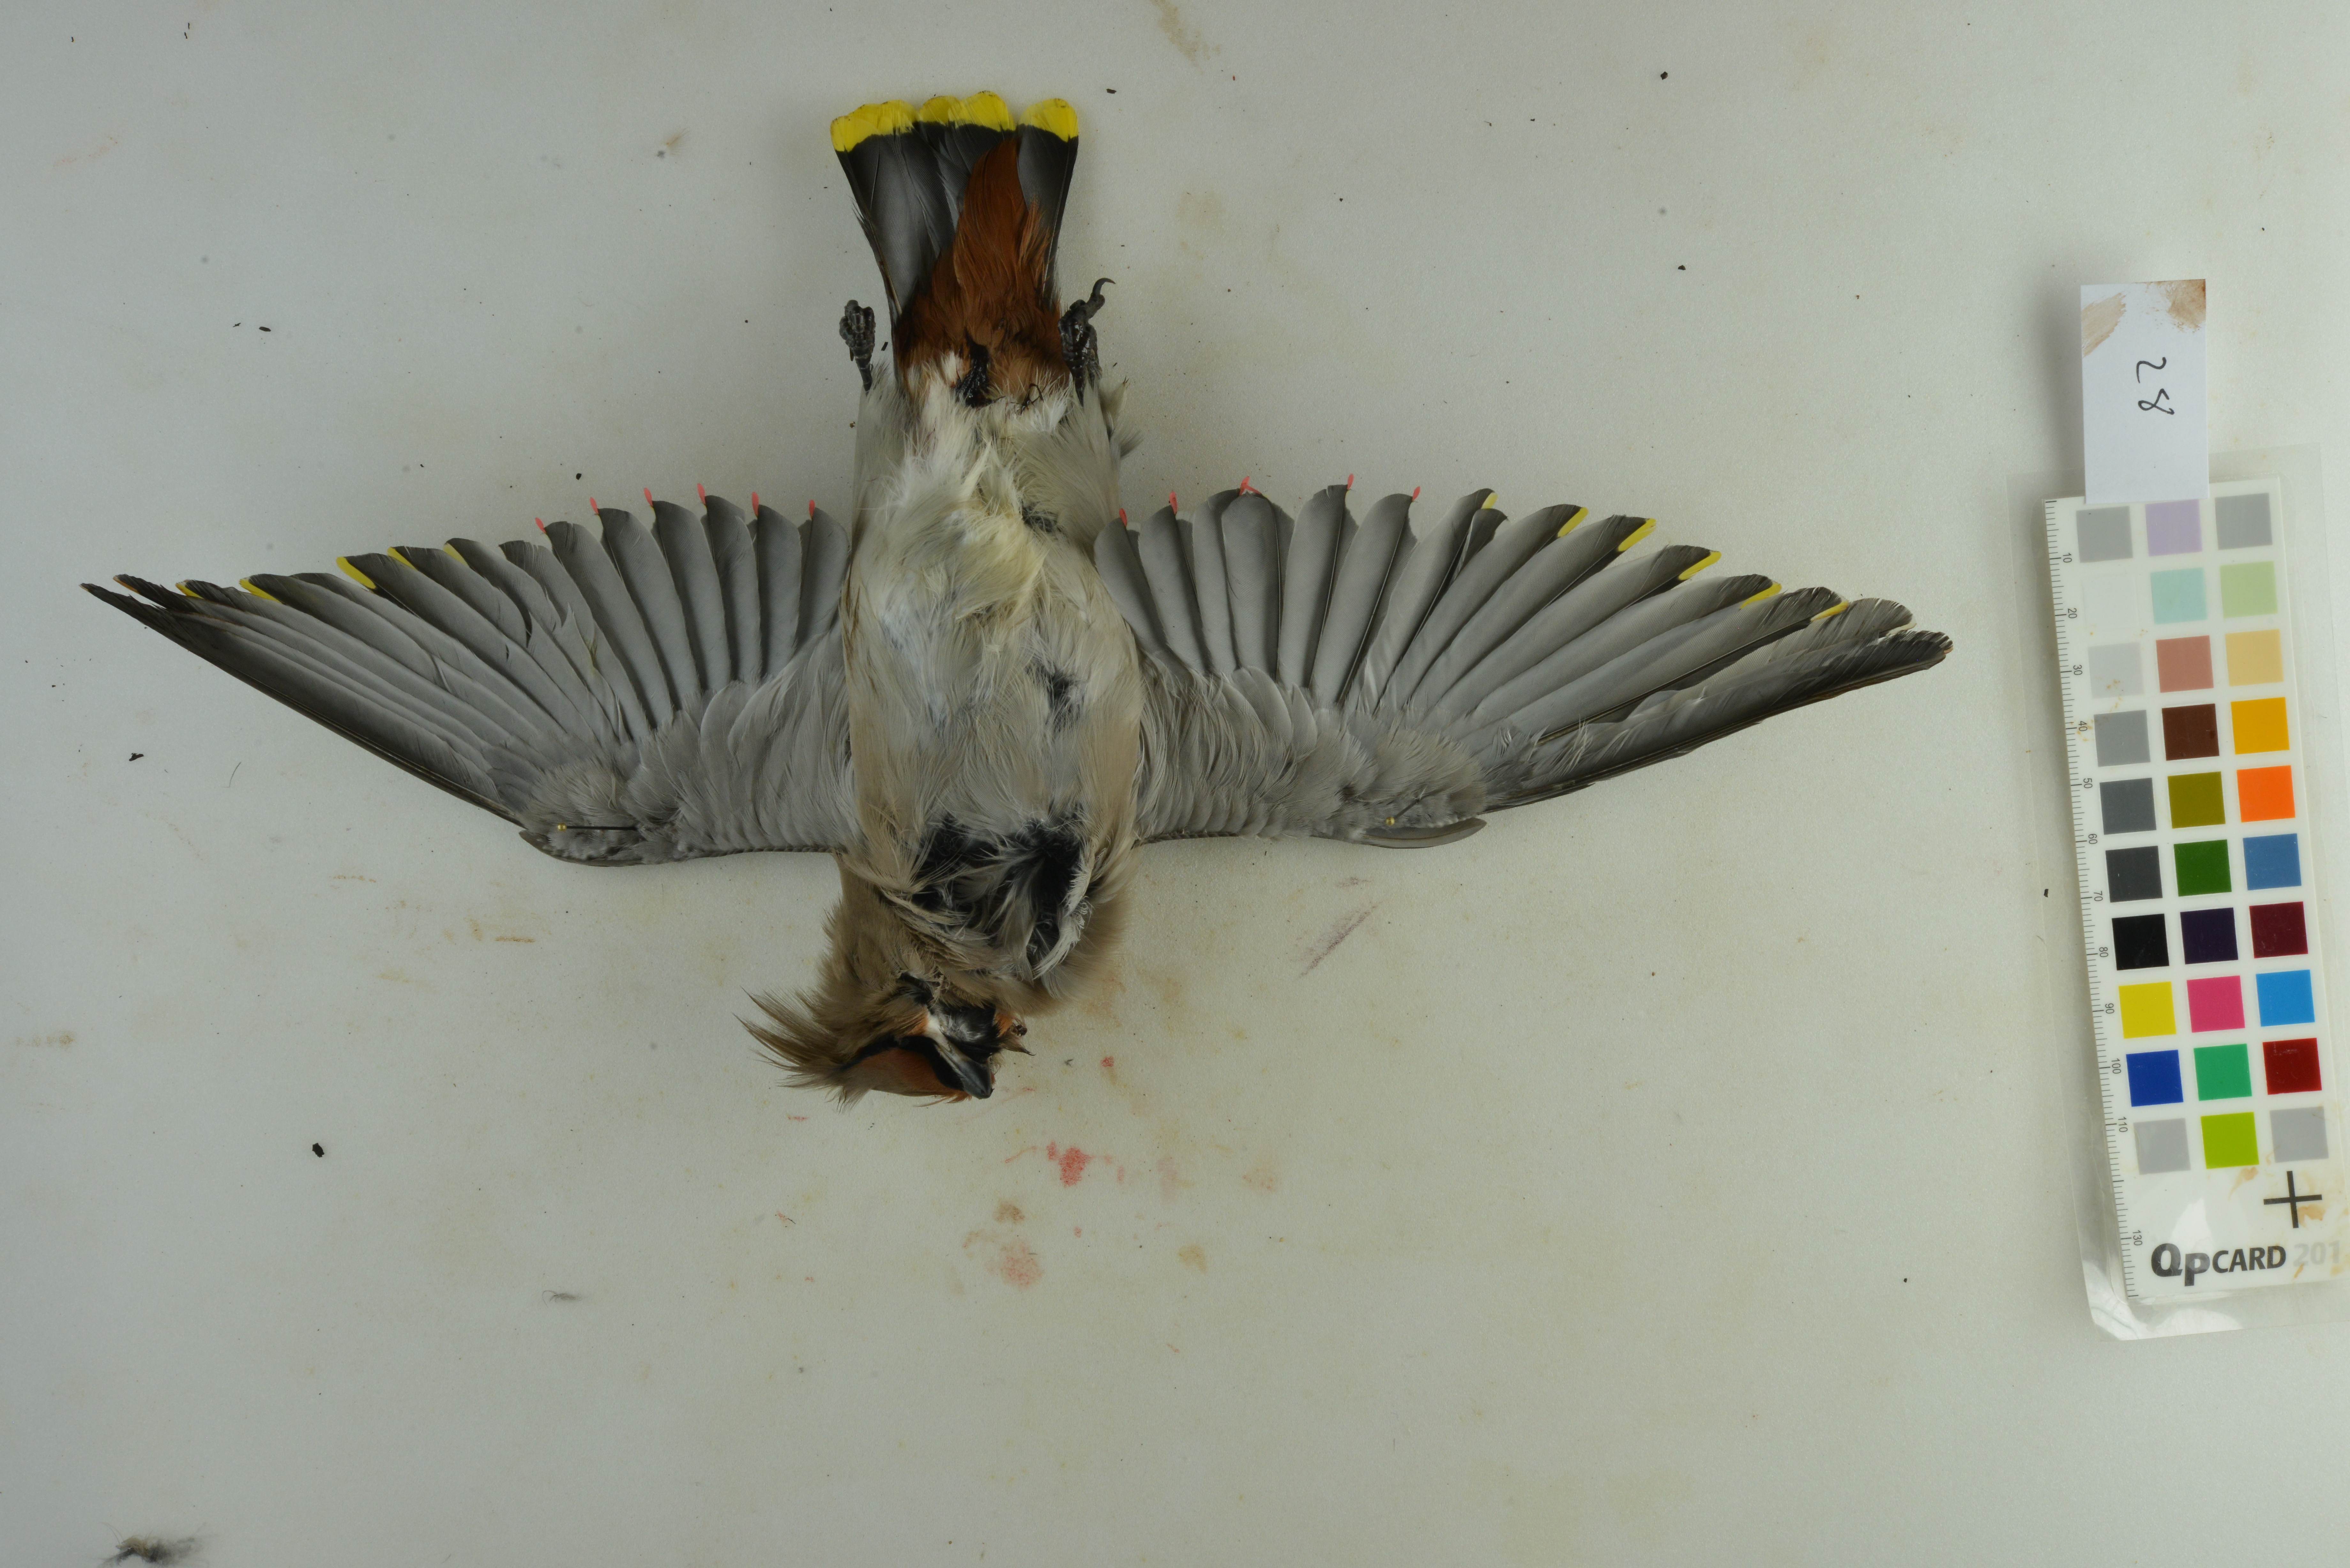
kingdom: Animalia
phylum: Chordata
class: Aves
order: Passeriformes
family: Bombycillidae
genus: Bombycilla
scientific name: Bombycilla garrulus
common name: Bohemian waxwing
